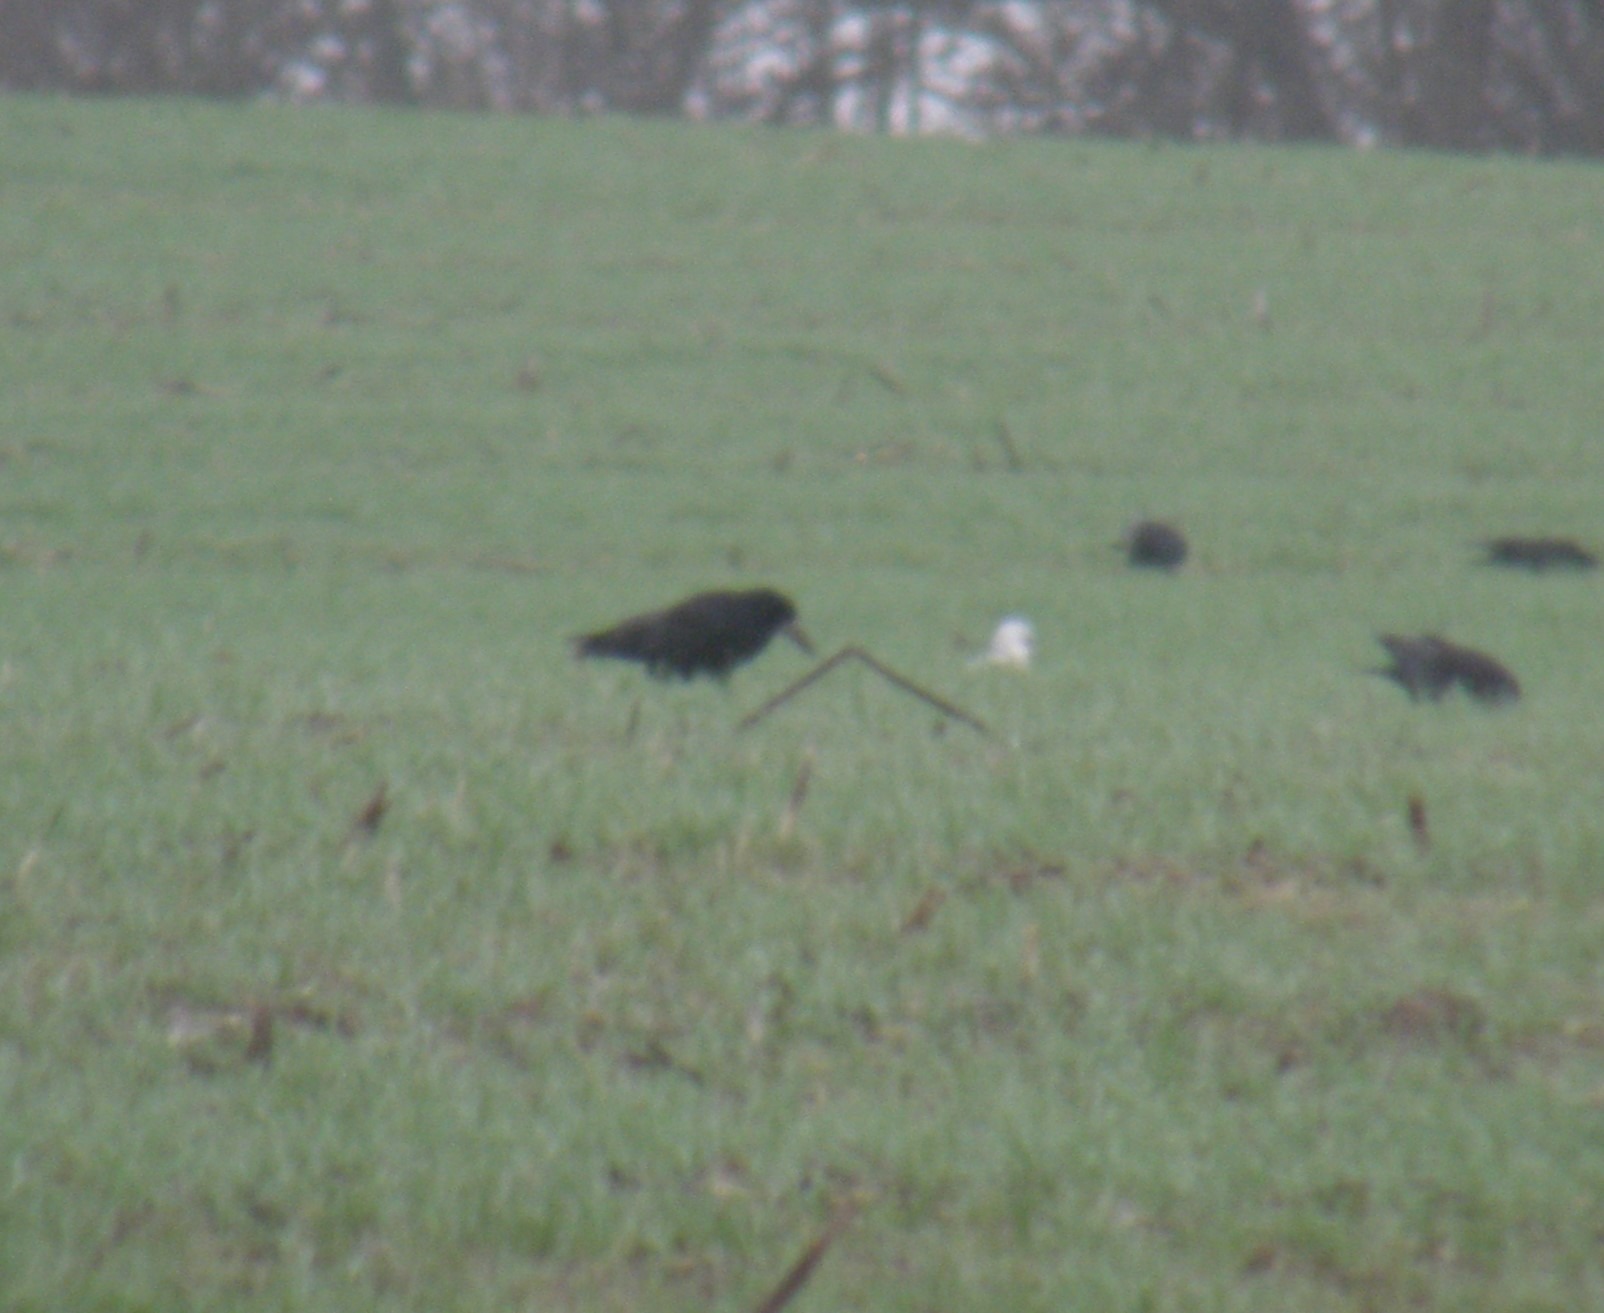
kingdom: Animalia
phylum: Chordata
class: Aves
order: Passeriformes
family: Corvidae
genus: Corvus
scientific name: Corvus frugilegus
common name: Råge
